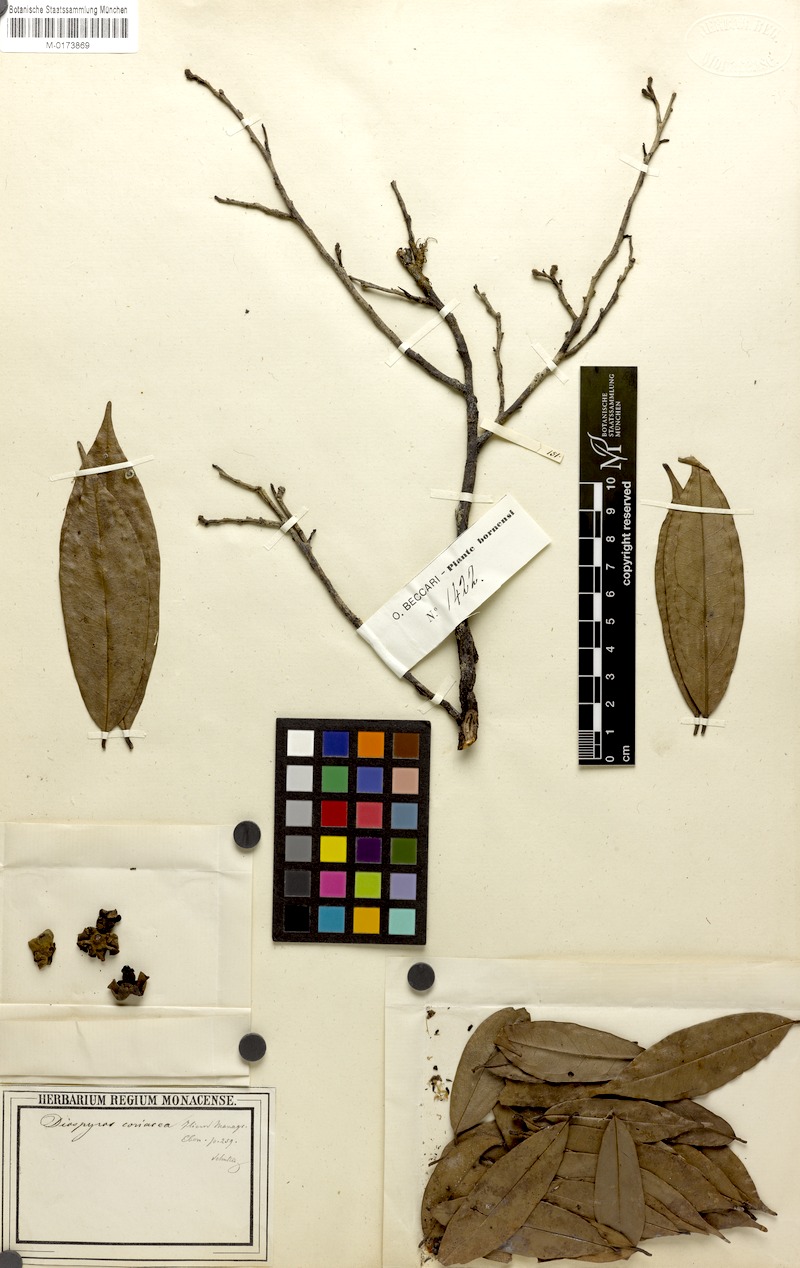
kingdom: Plantae
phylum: Tracheophyta
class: Magnoliopsida
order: Ericales
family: Ebenaceae
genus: Diospyros
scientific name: Diospyros coriacea
